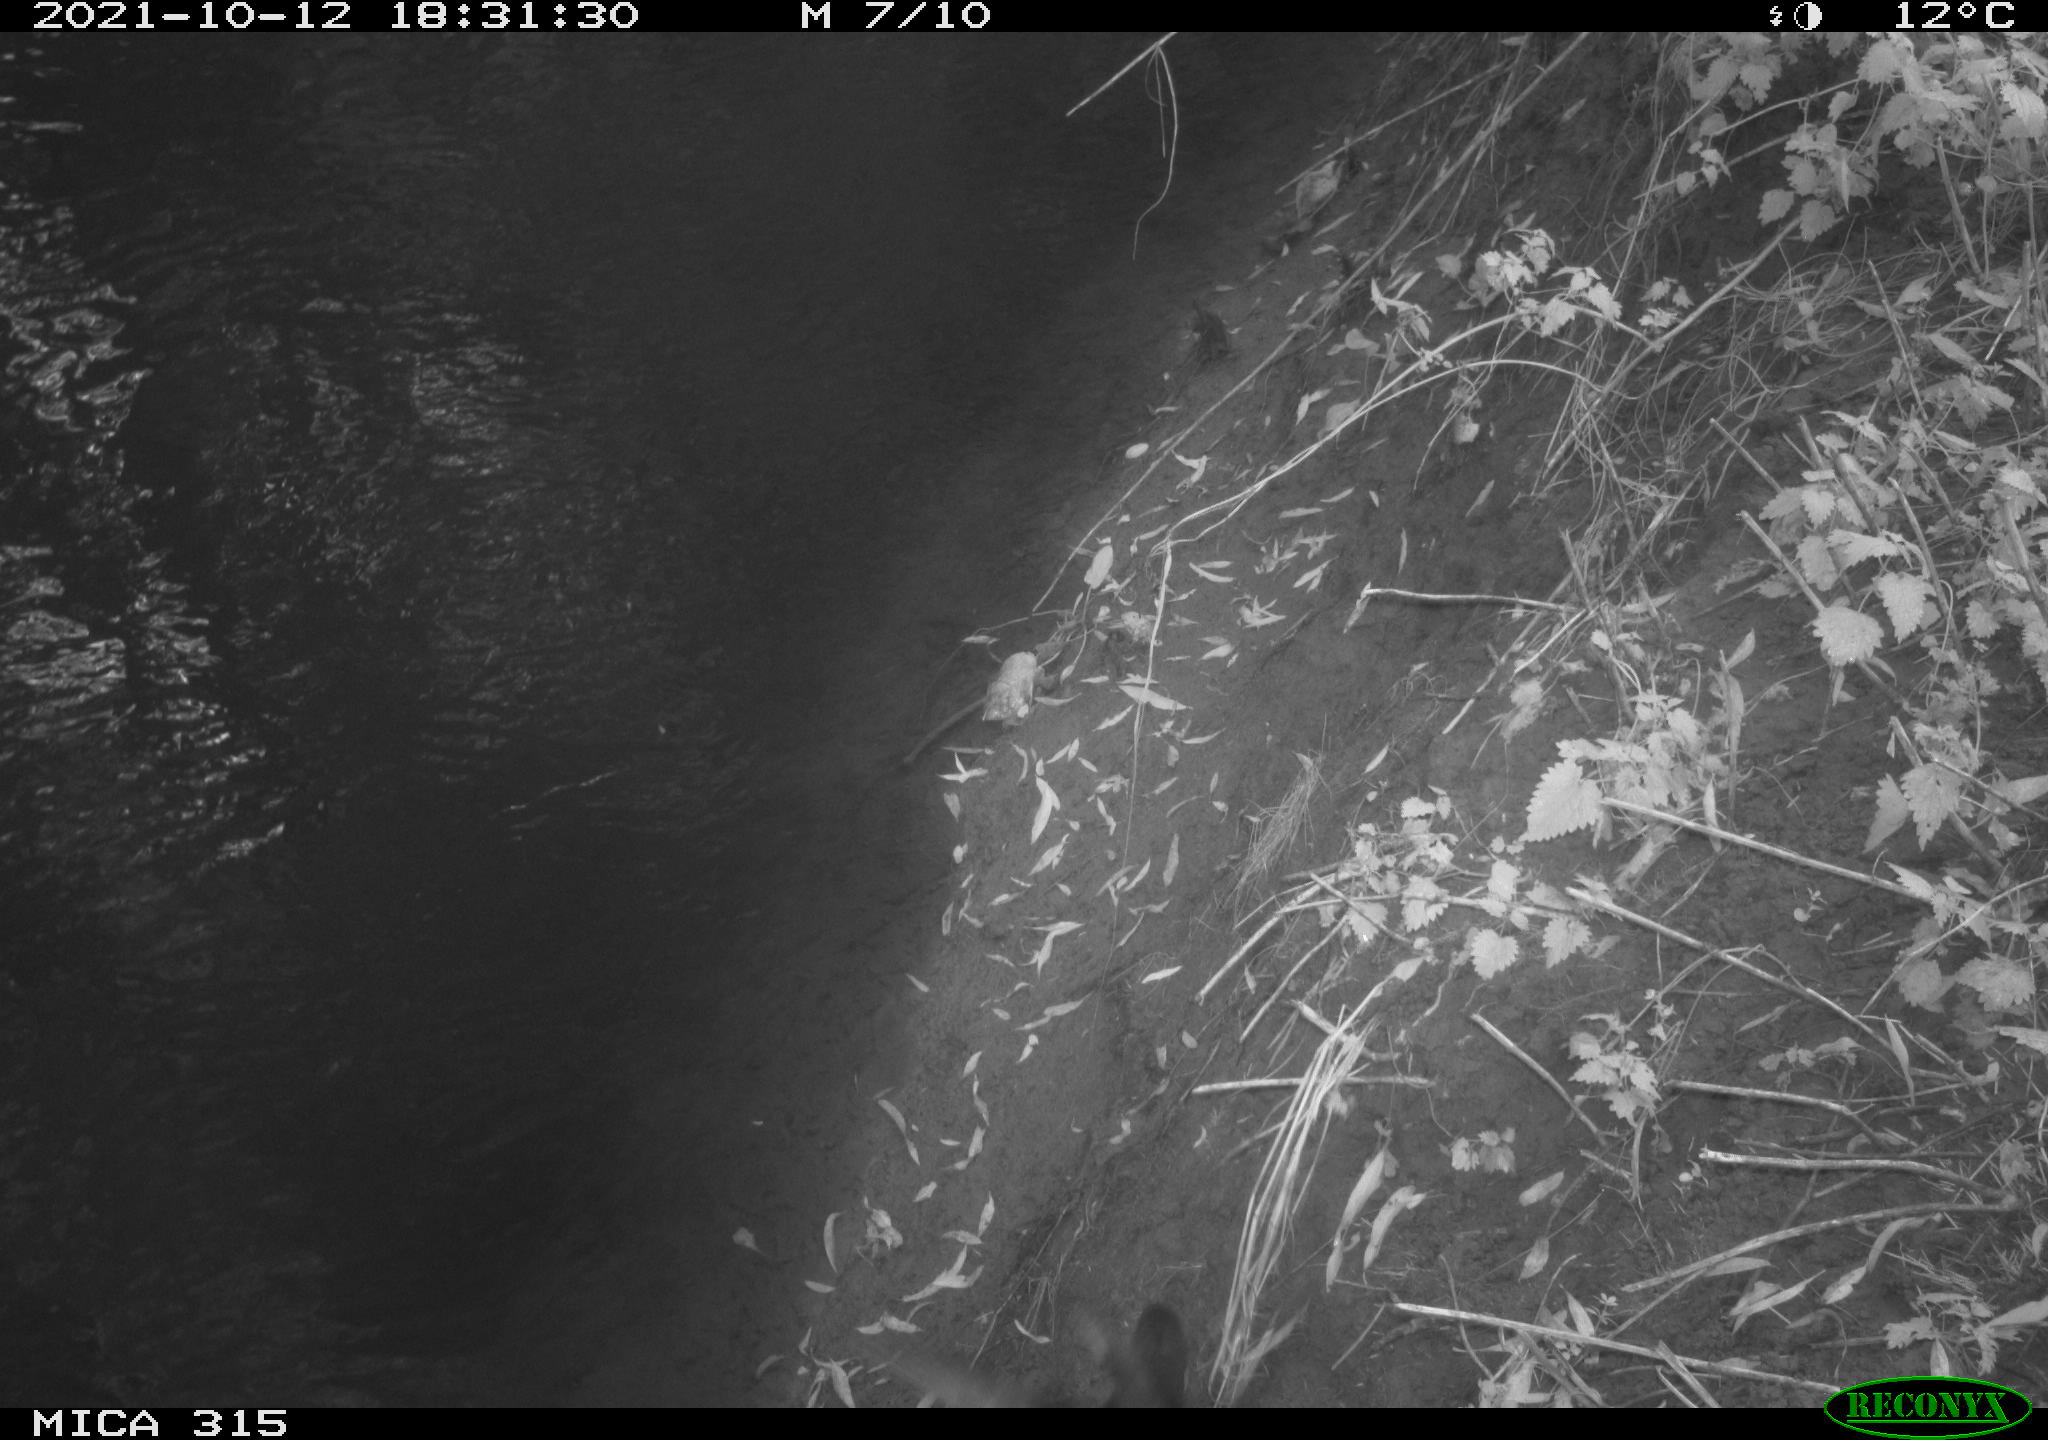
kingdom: Animalia
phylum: Chordata
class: Aves
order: Gruiformes
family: Rallidae
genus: Gallinula
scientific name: Gallinula chloropus
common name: Common moorhen
